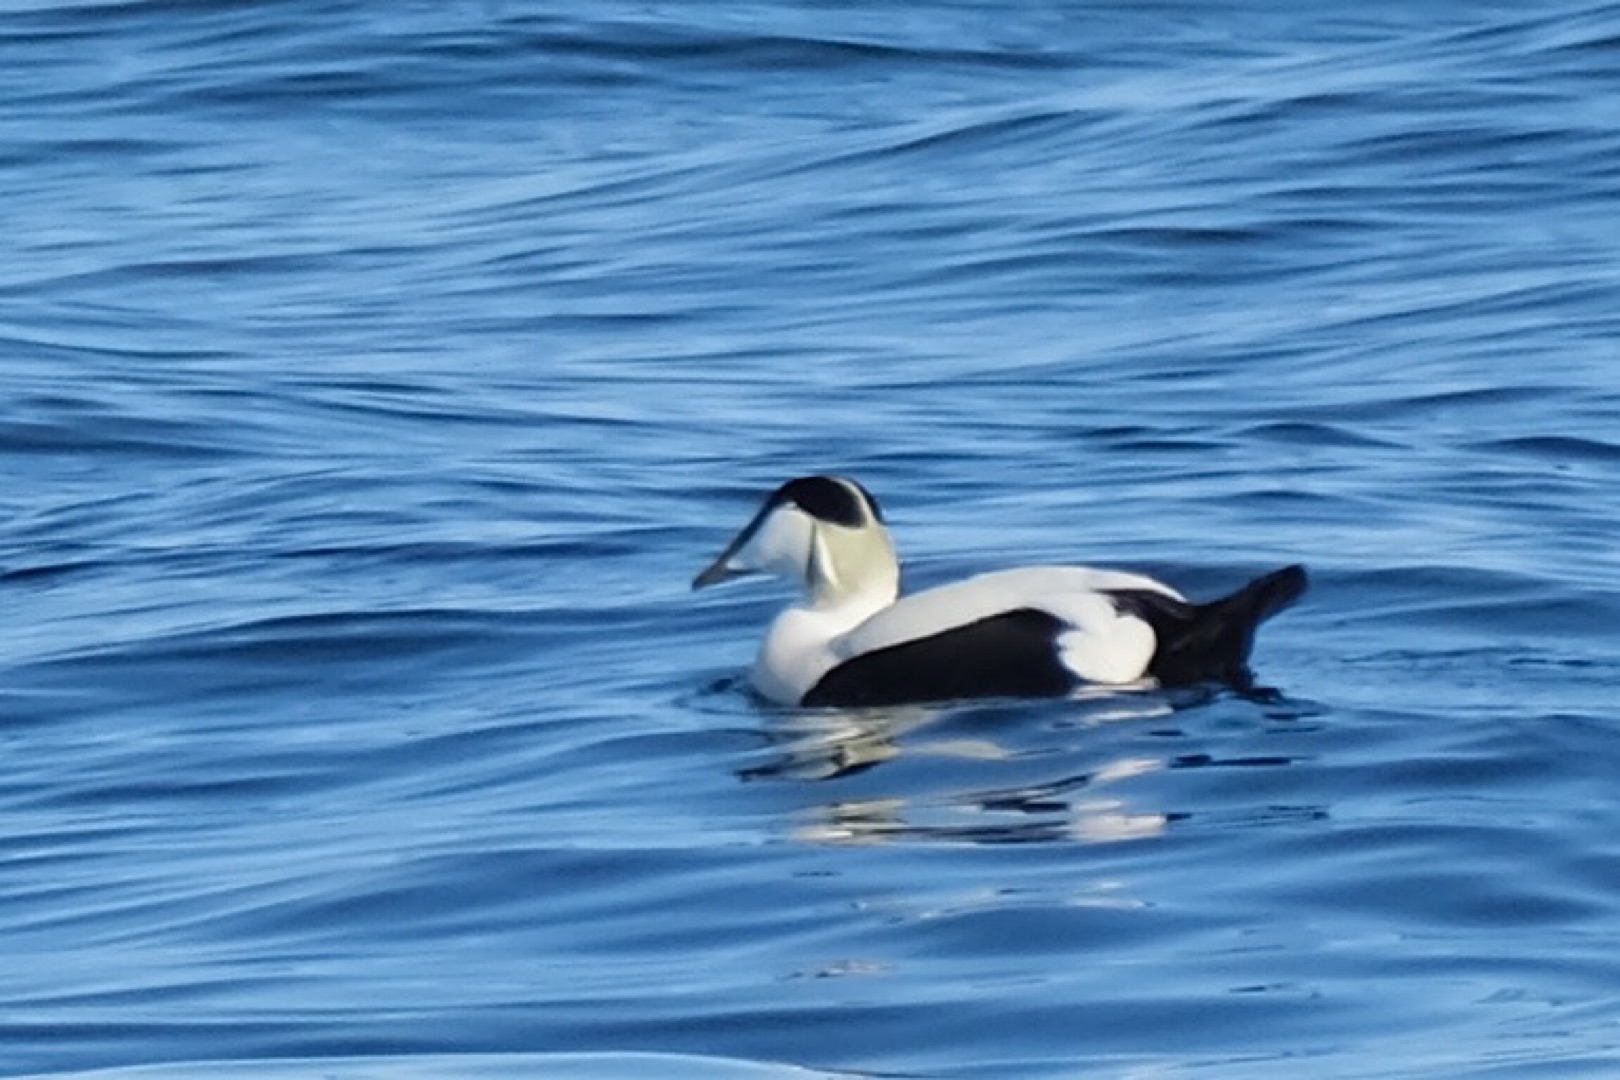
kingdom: Animalia
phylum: Chordata
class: Aves
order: Anseriformes
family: Anatidae
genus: Somateria
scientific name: Somateria mollissima
